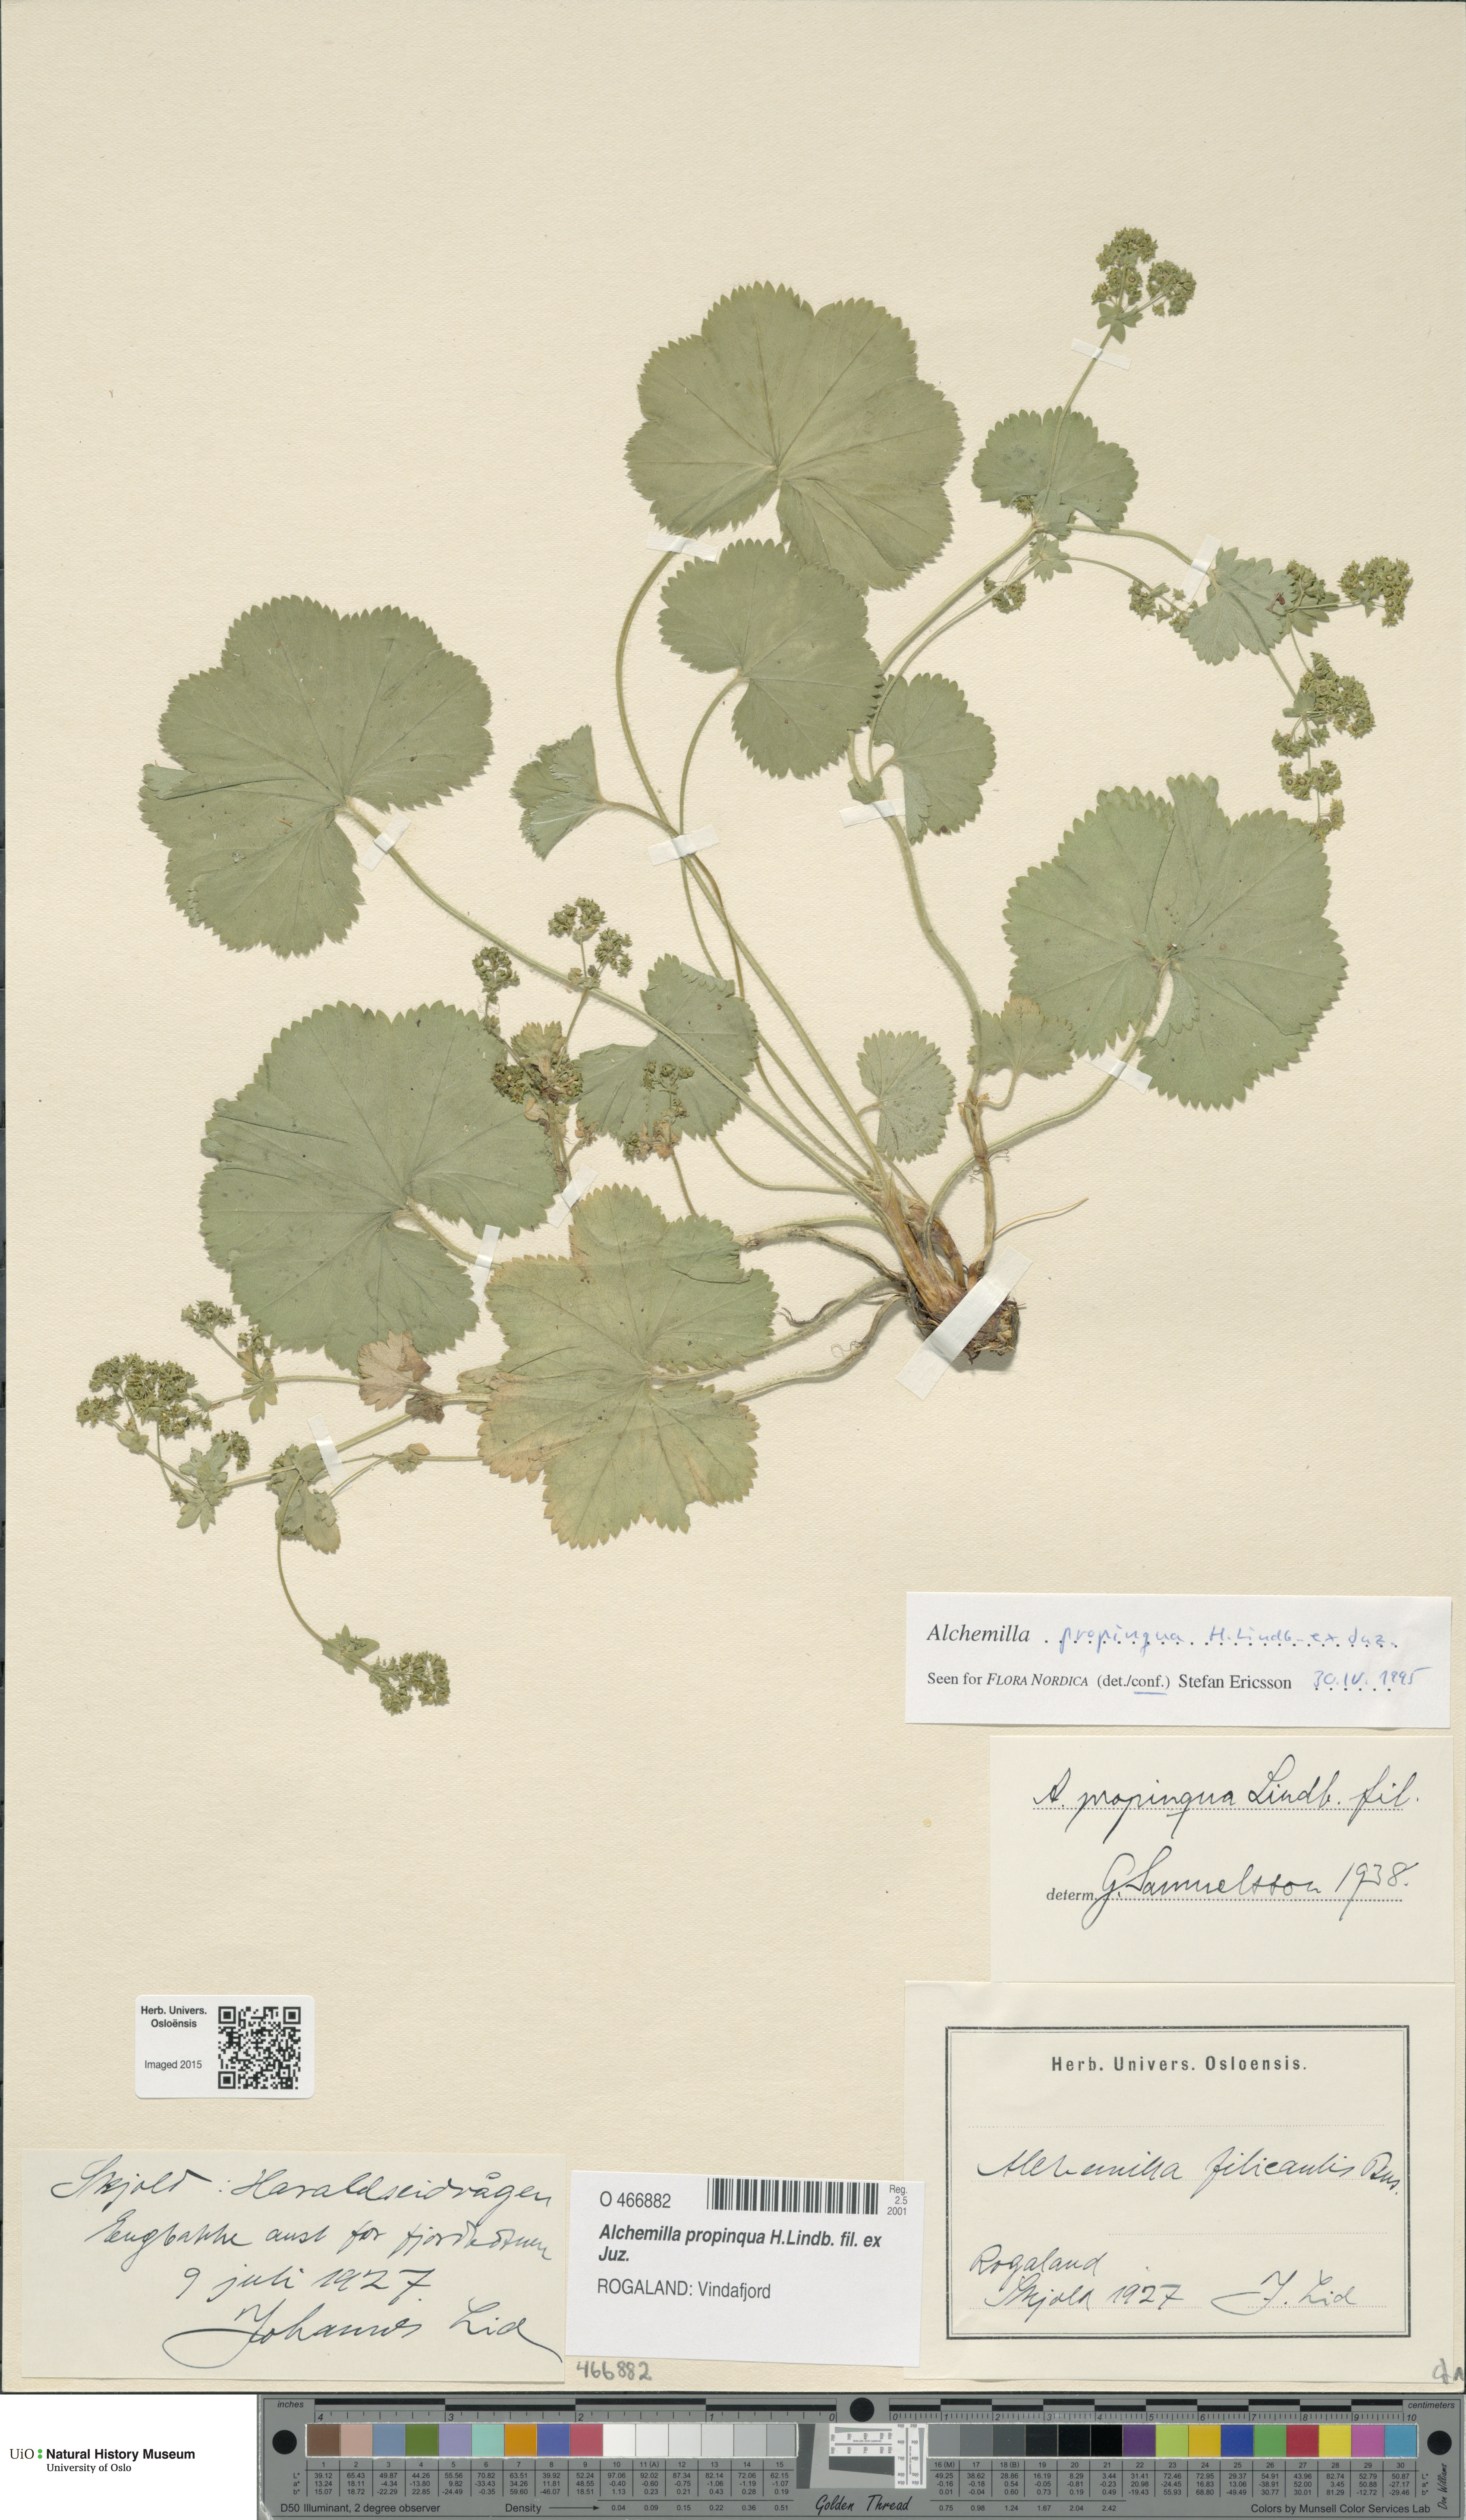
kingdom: Plantae
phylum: Tracheophyta
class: Magnoliopsida
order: Rosales
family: Rosaceae
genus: Alchemilla
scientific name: Alchemilla propinqua
